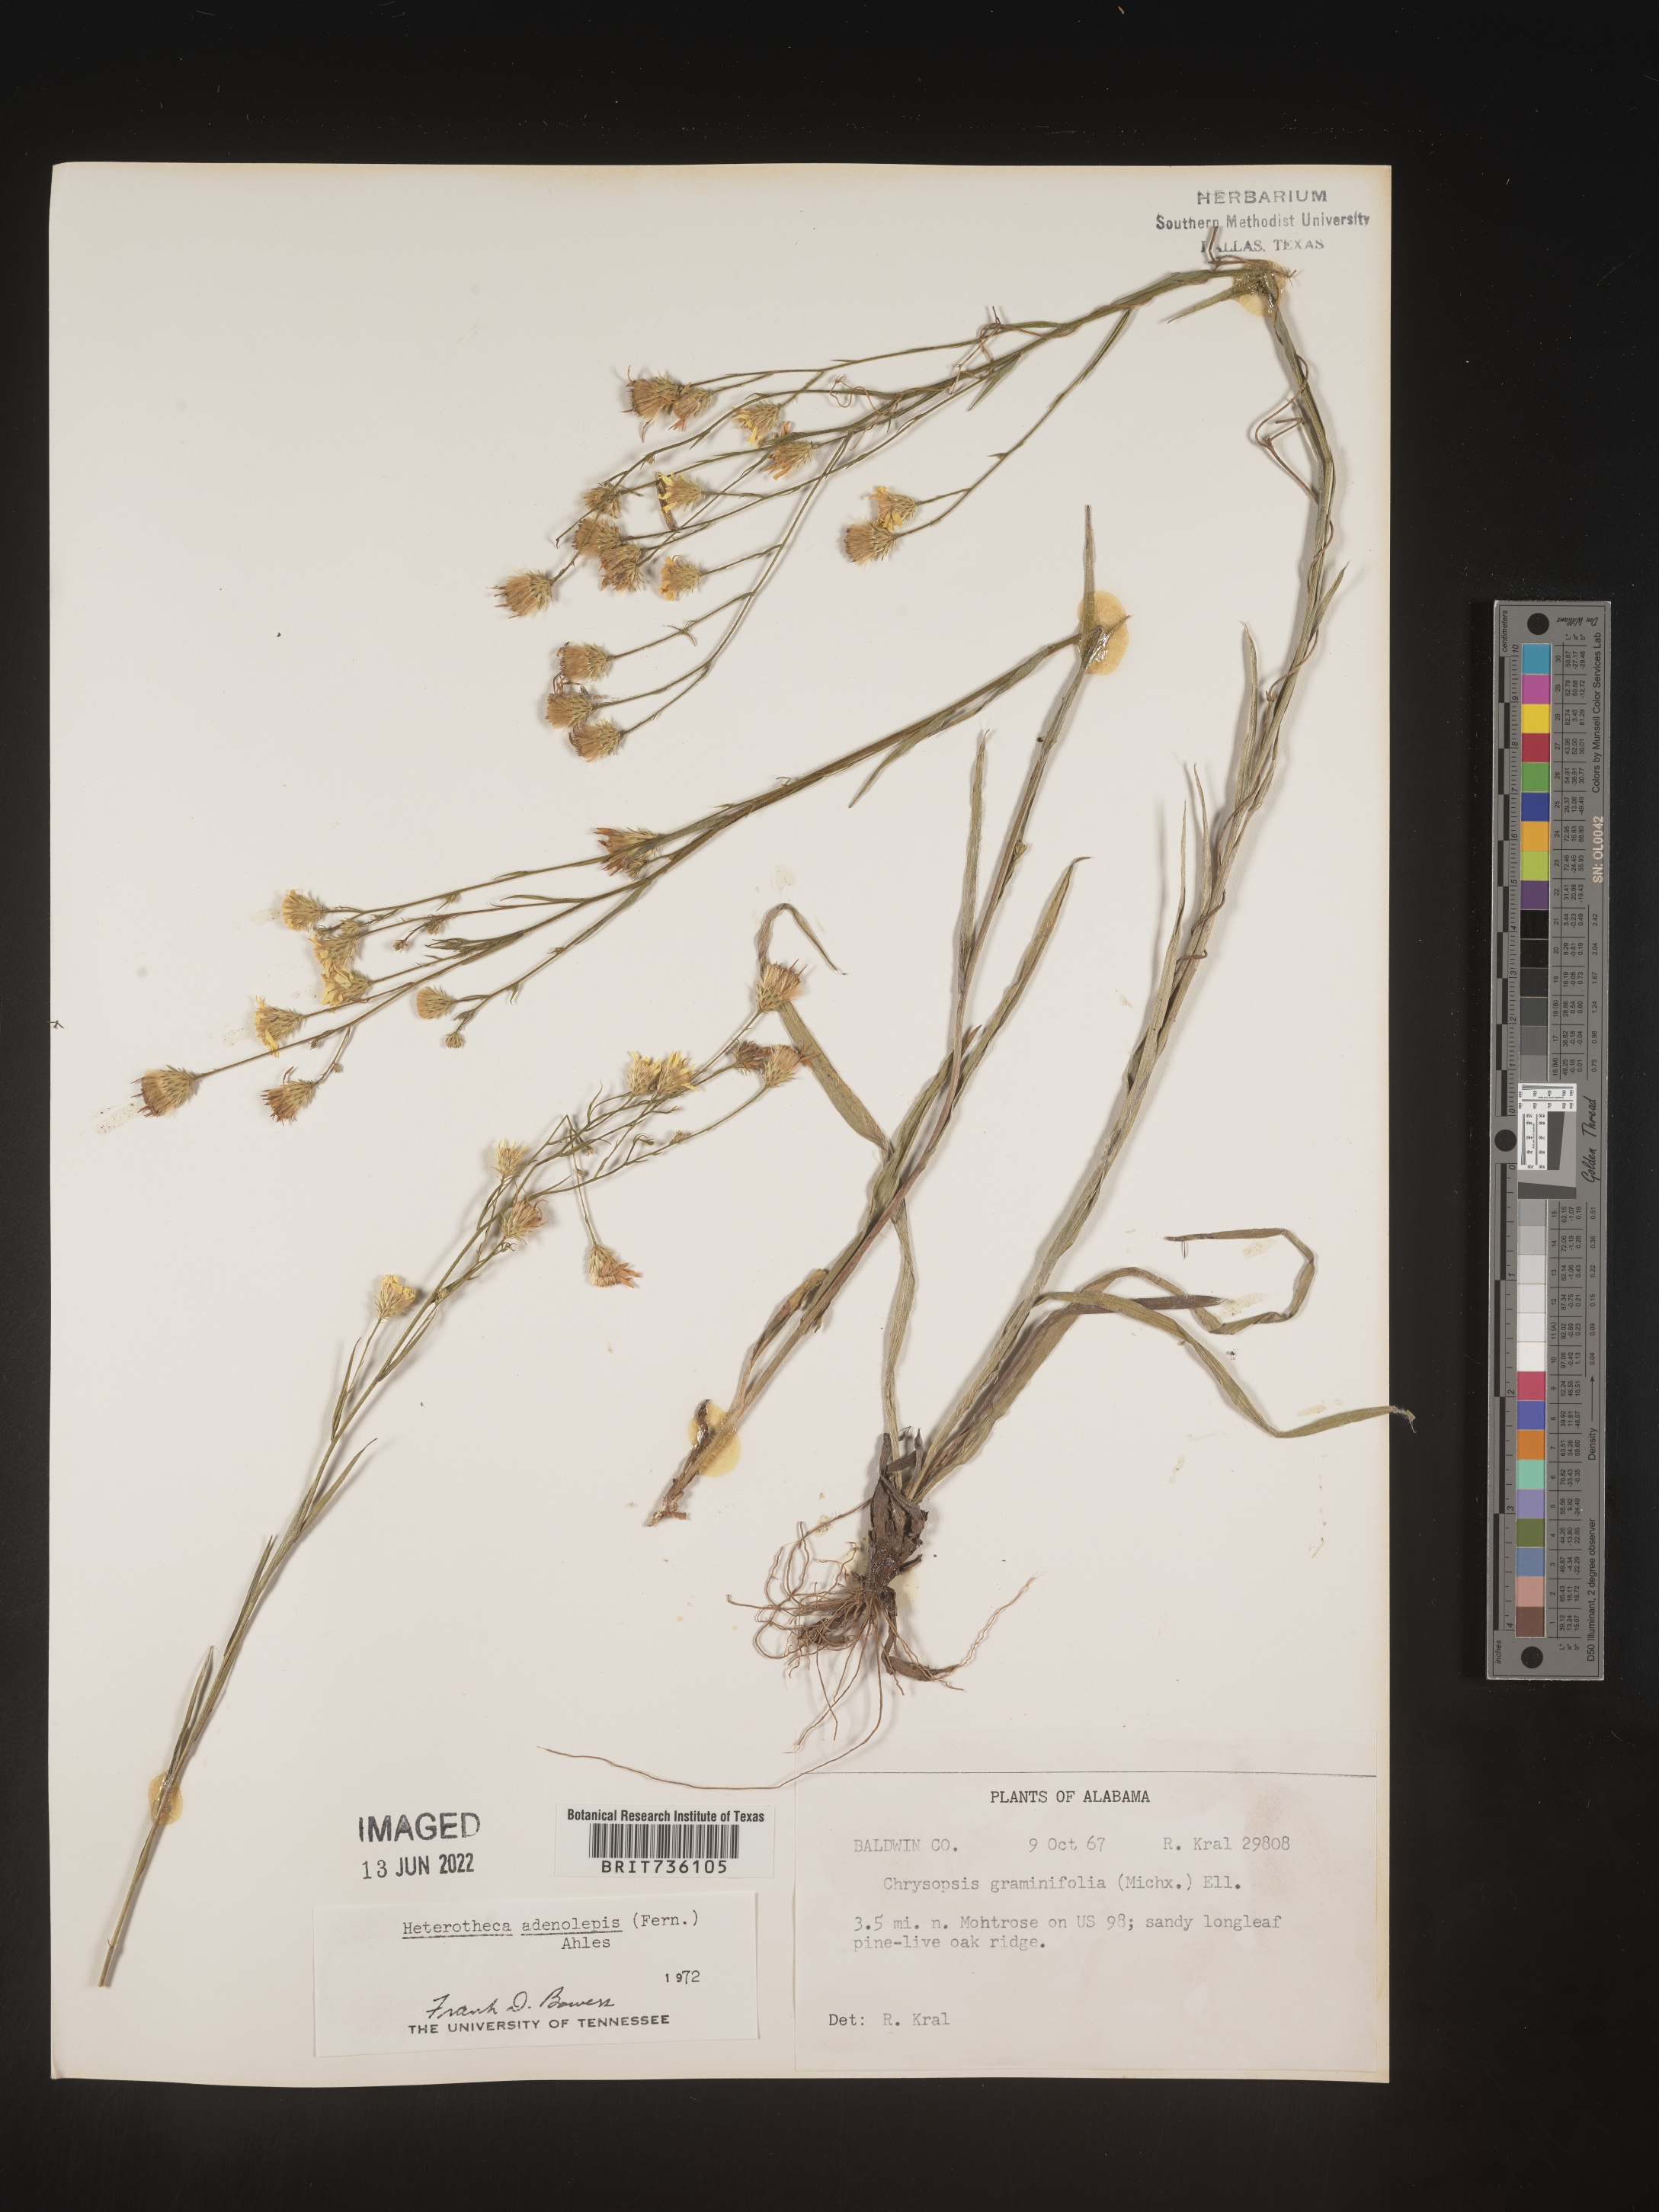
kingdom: Plantae
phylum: Tracheophyta
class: Magnoliopsida
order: Asterales
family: Asteraceae
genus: Pityopsis
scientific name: Pityopsis aspera
